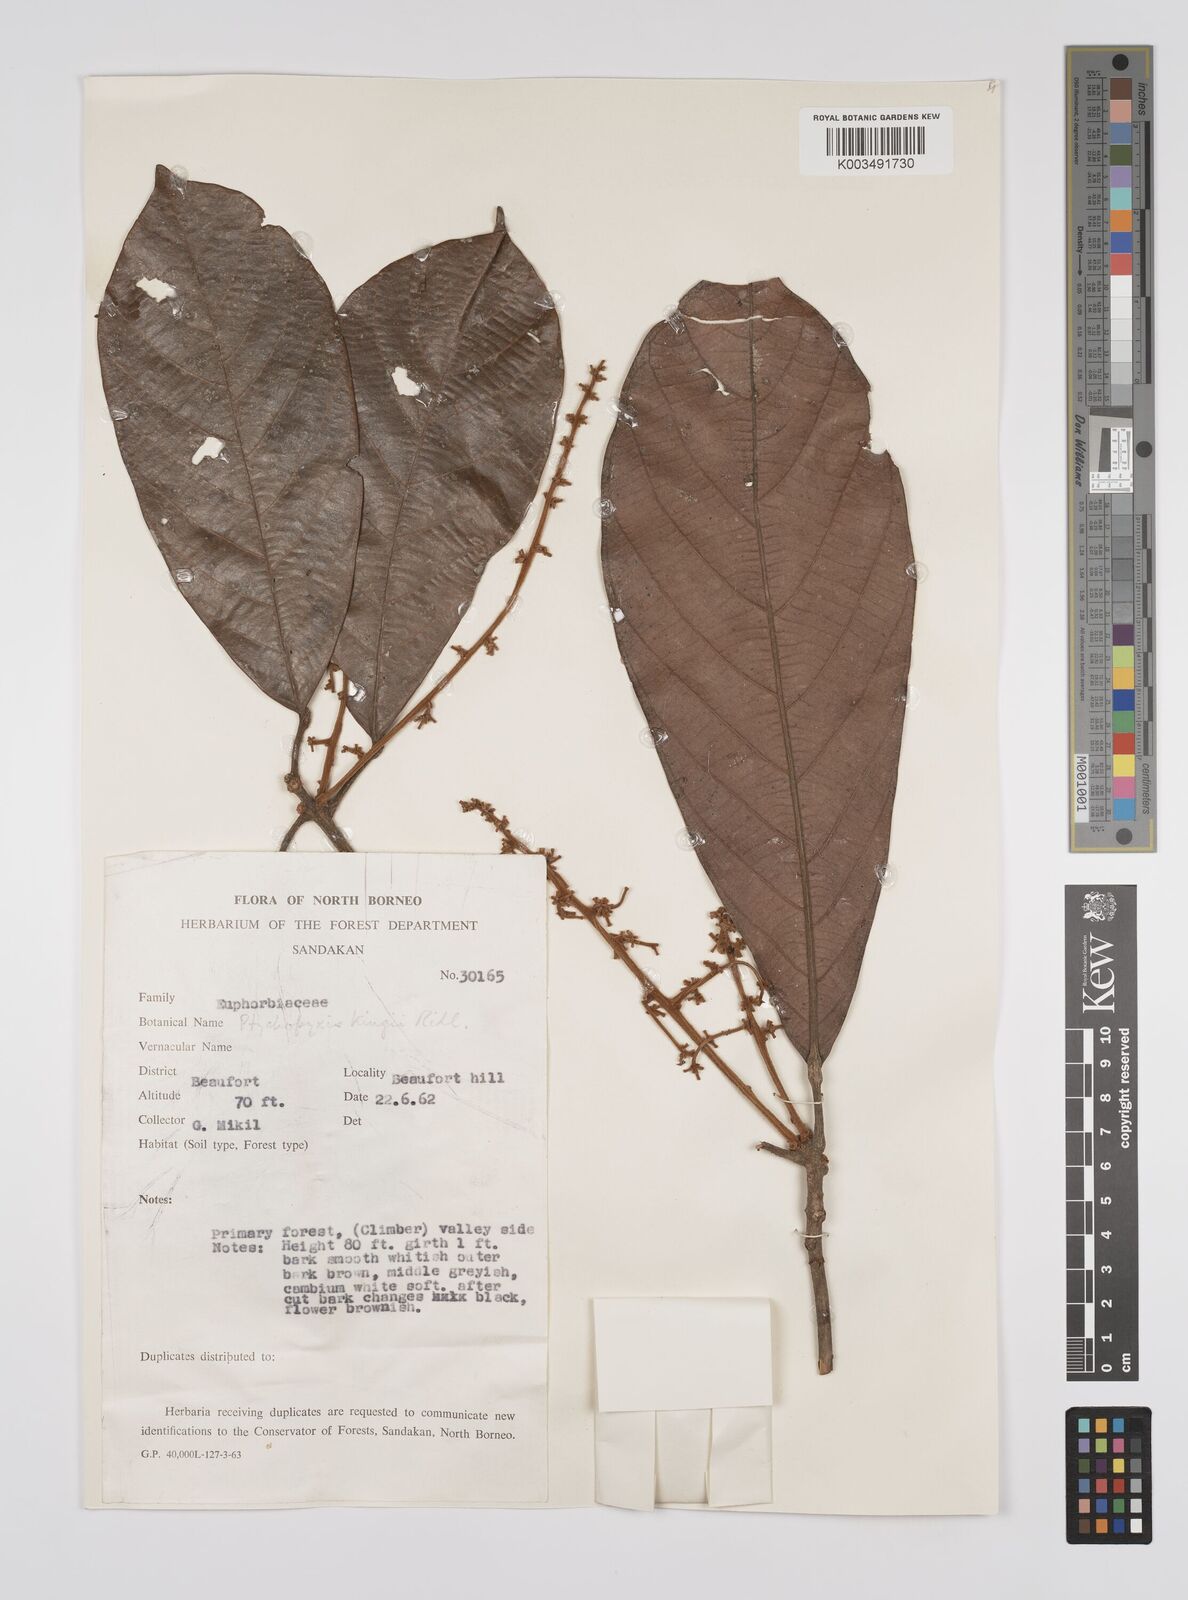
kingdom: Plantae
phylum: Tracheophyta
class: Magnoliopsida
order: Malpighiales
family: Euphorbiaceae
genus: Ptychopyxis
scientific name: Ptychopyxis kingii
